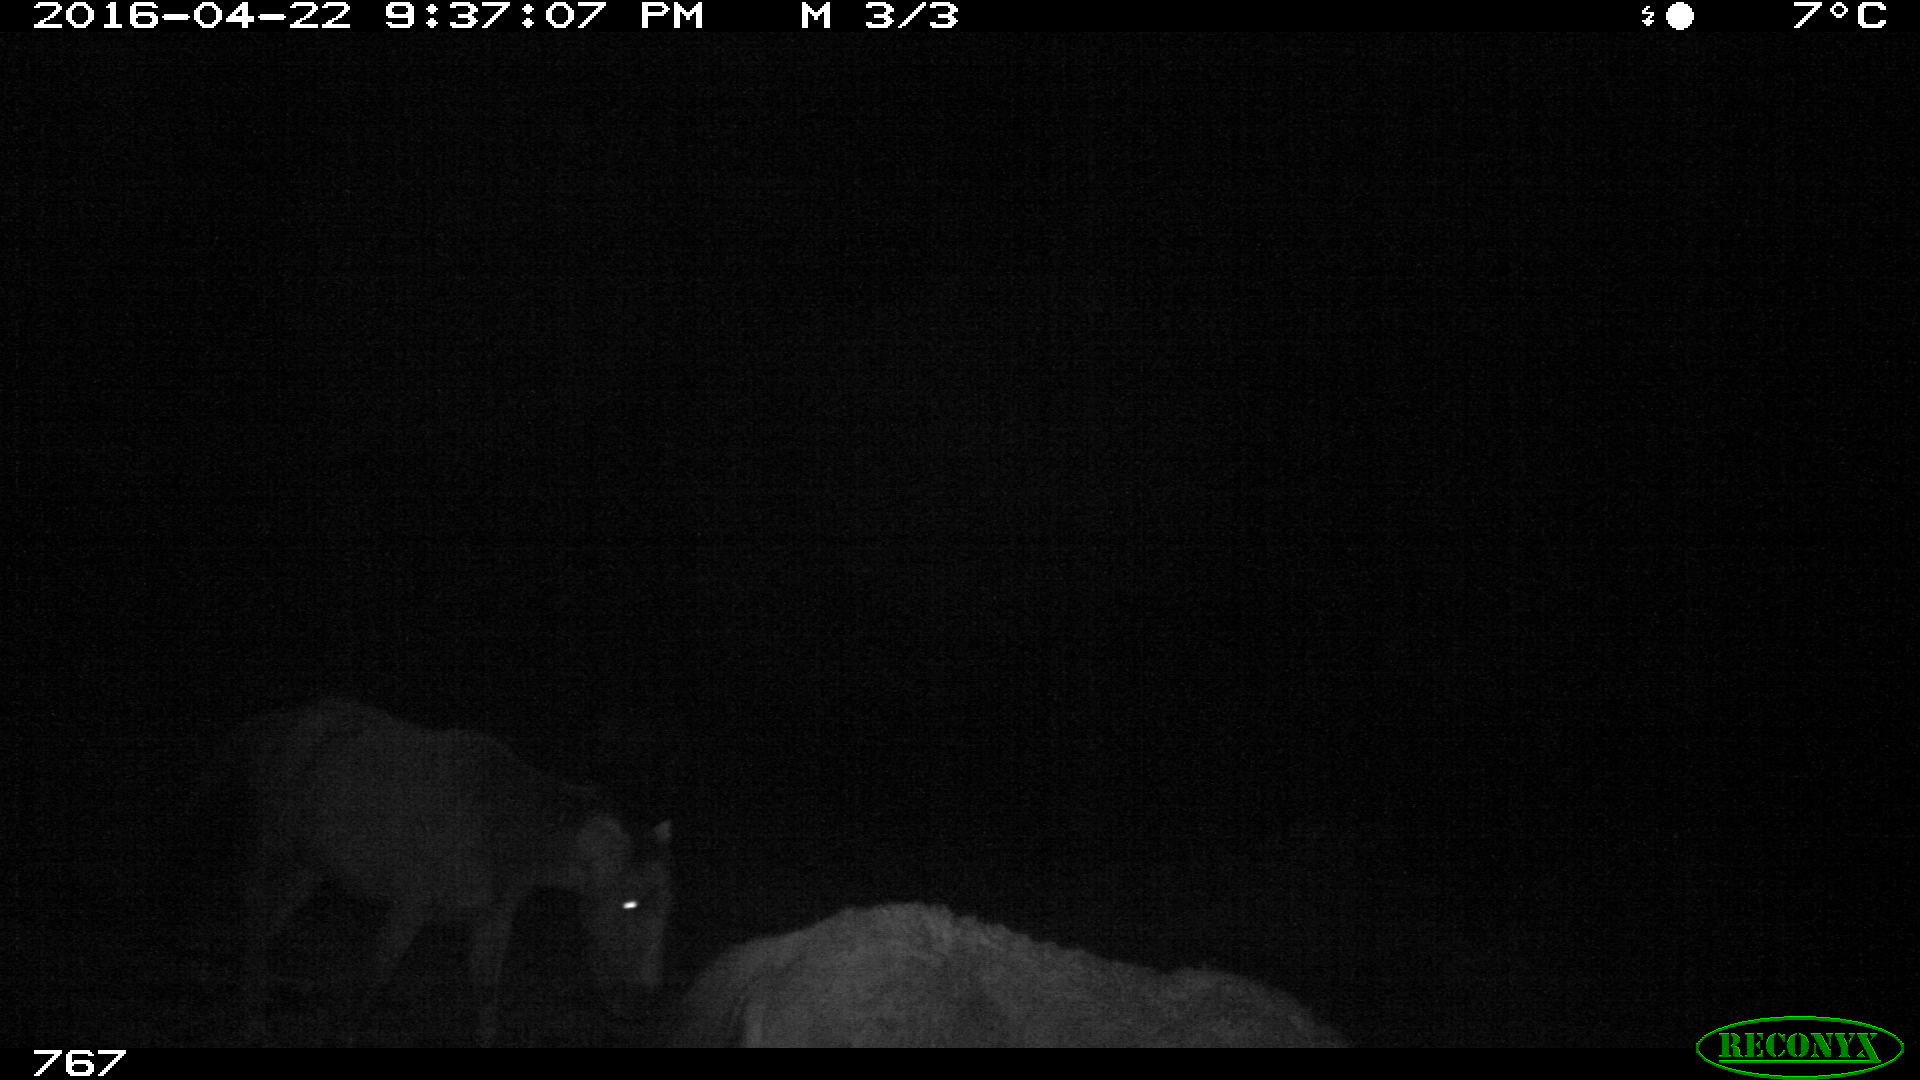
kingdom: Animalia
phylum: Chordata
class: Mammalia
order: Perissodactyla
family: Equidae
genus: Equus
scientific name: Equus caballus
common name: Horse
